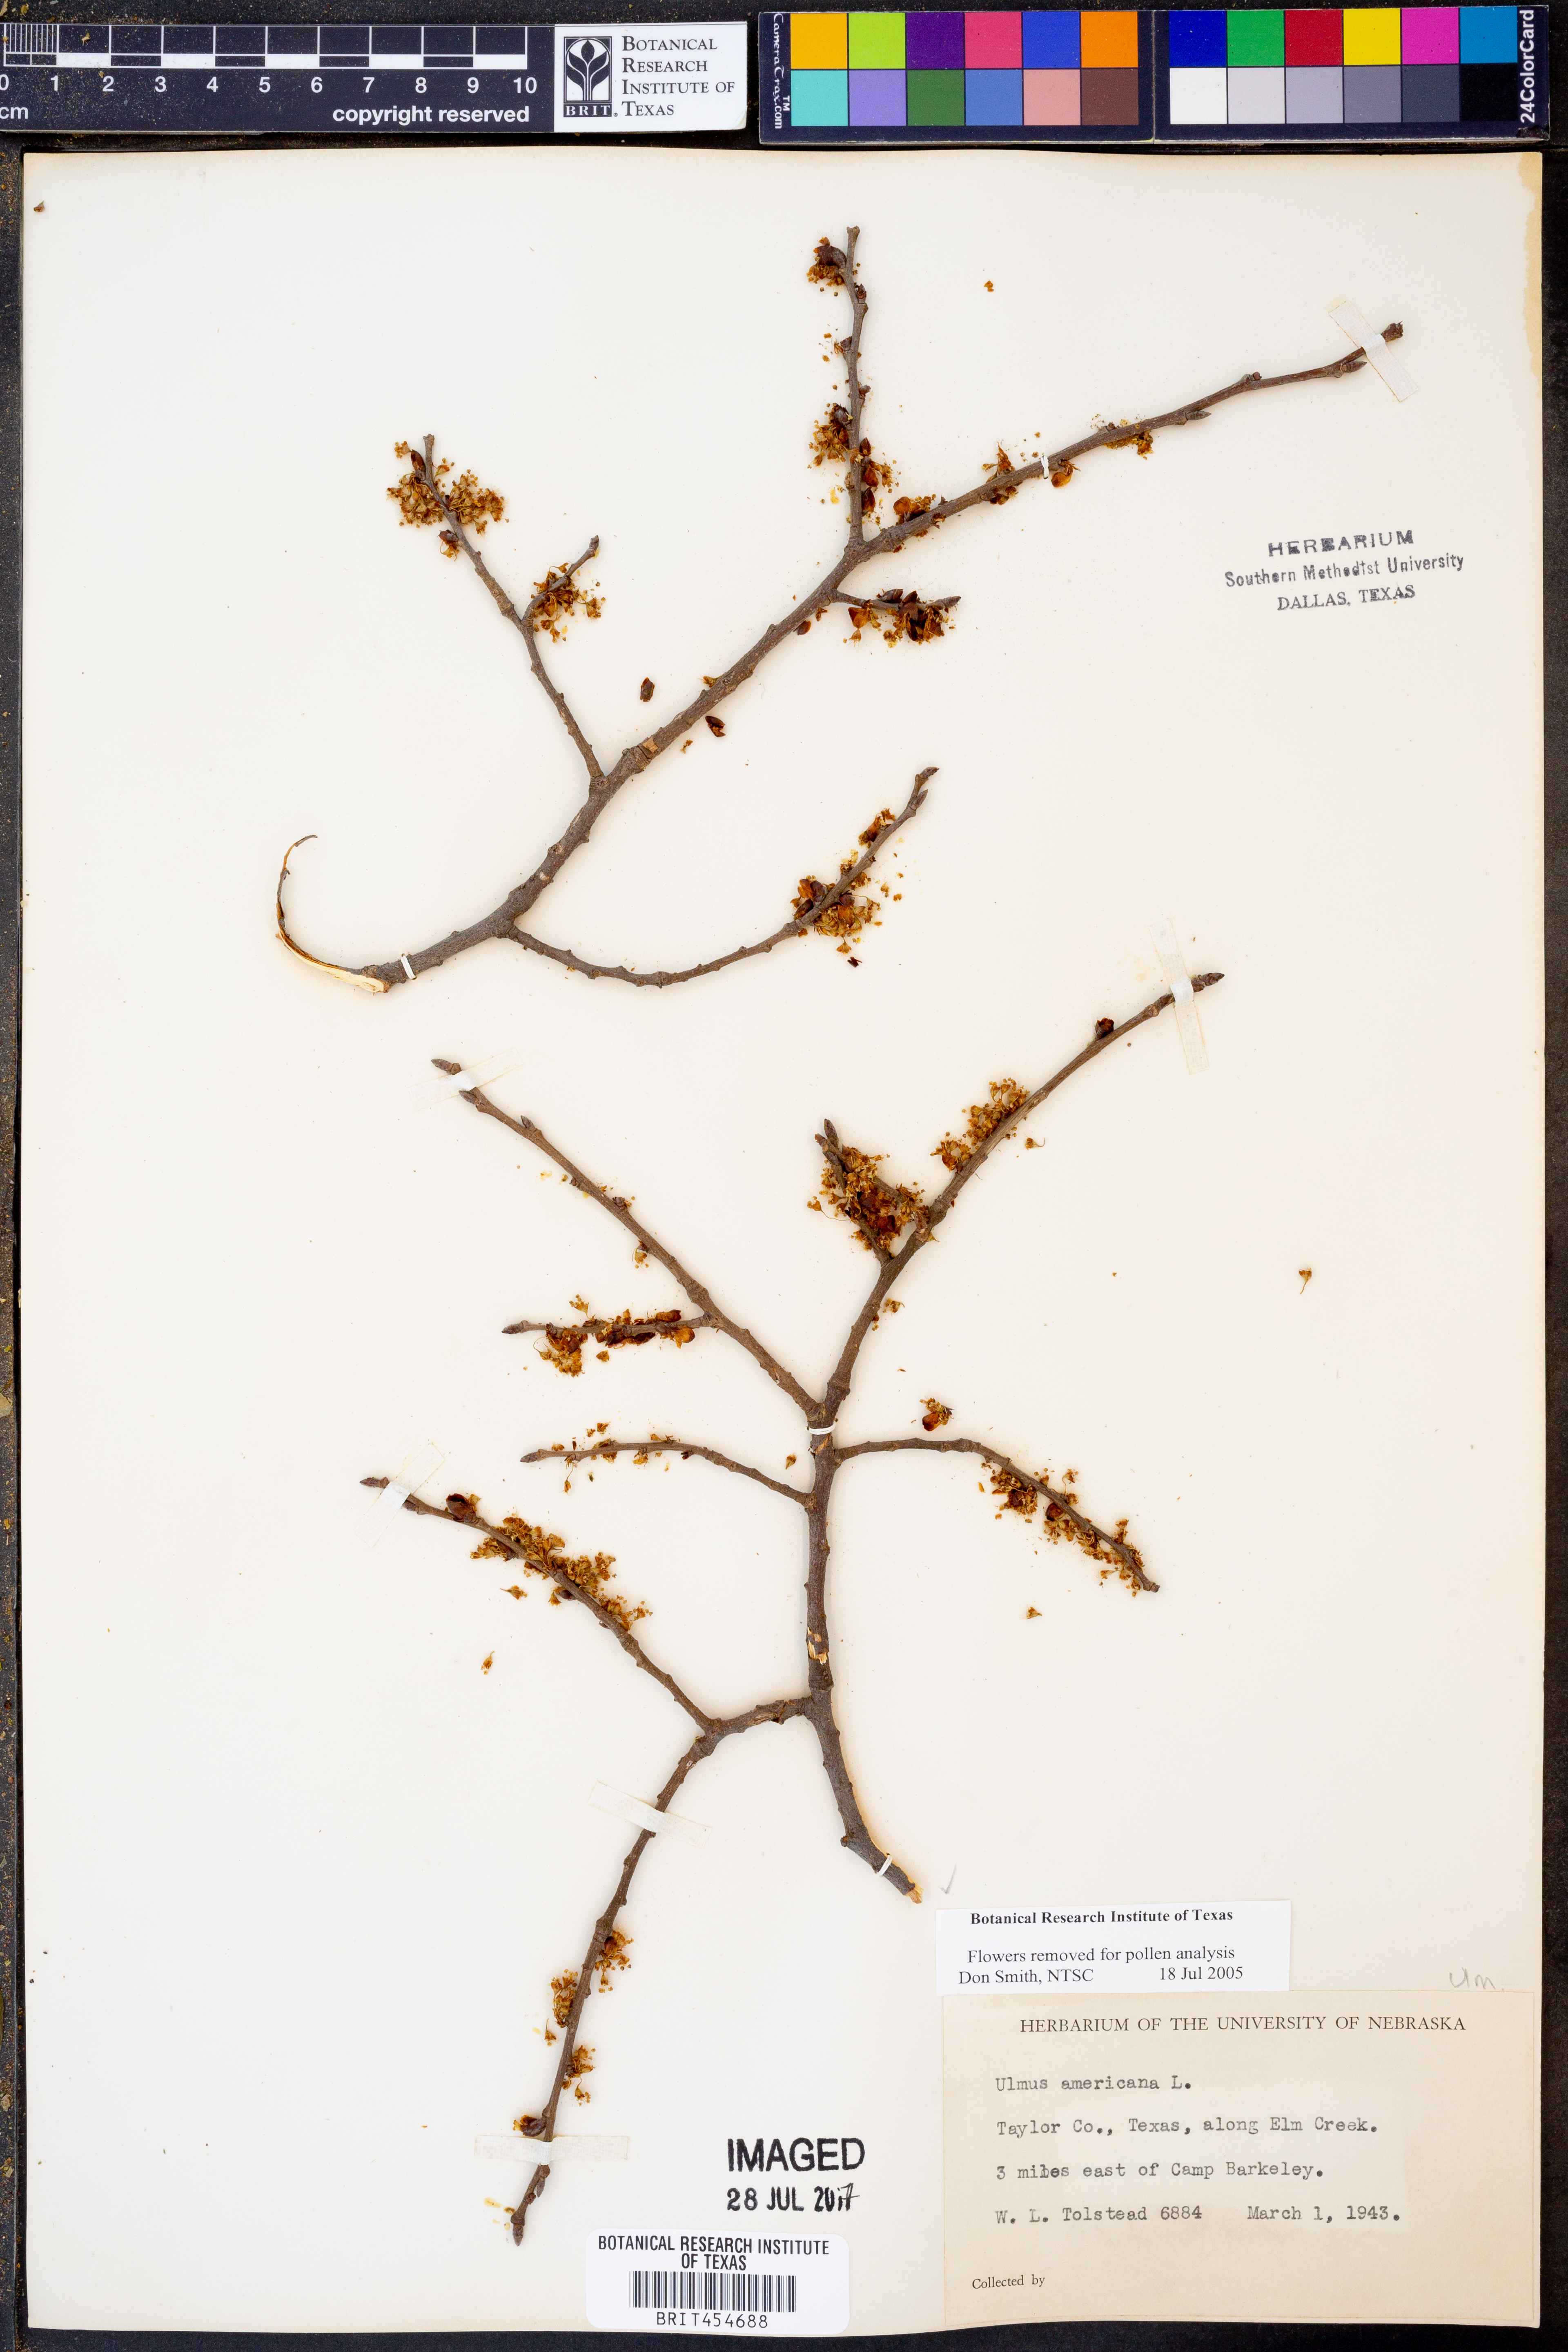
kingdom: Plantae
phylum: Tracheophyta
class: Magnoliopsida
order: Rosales
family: Ulmaceae
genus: Ulmus
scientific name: Ulmus americana
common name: American elm
